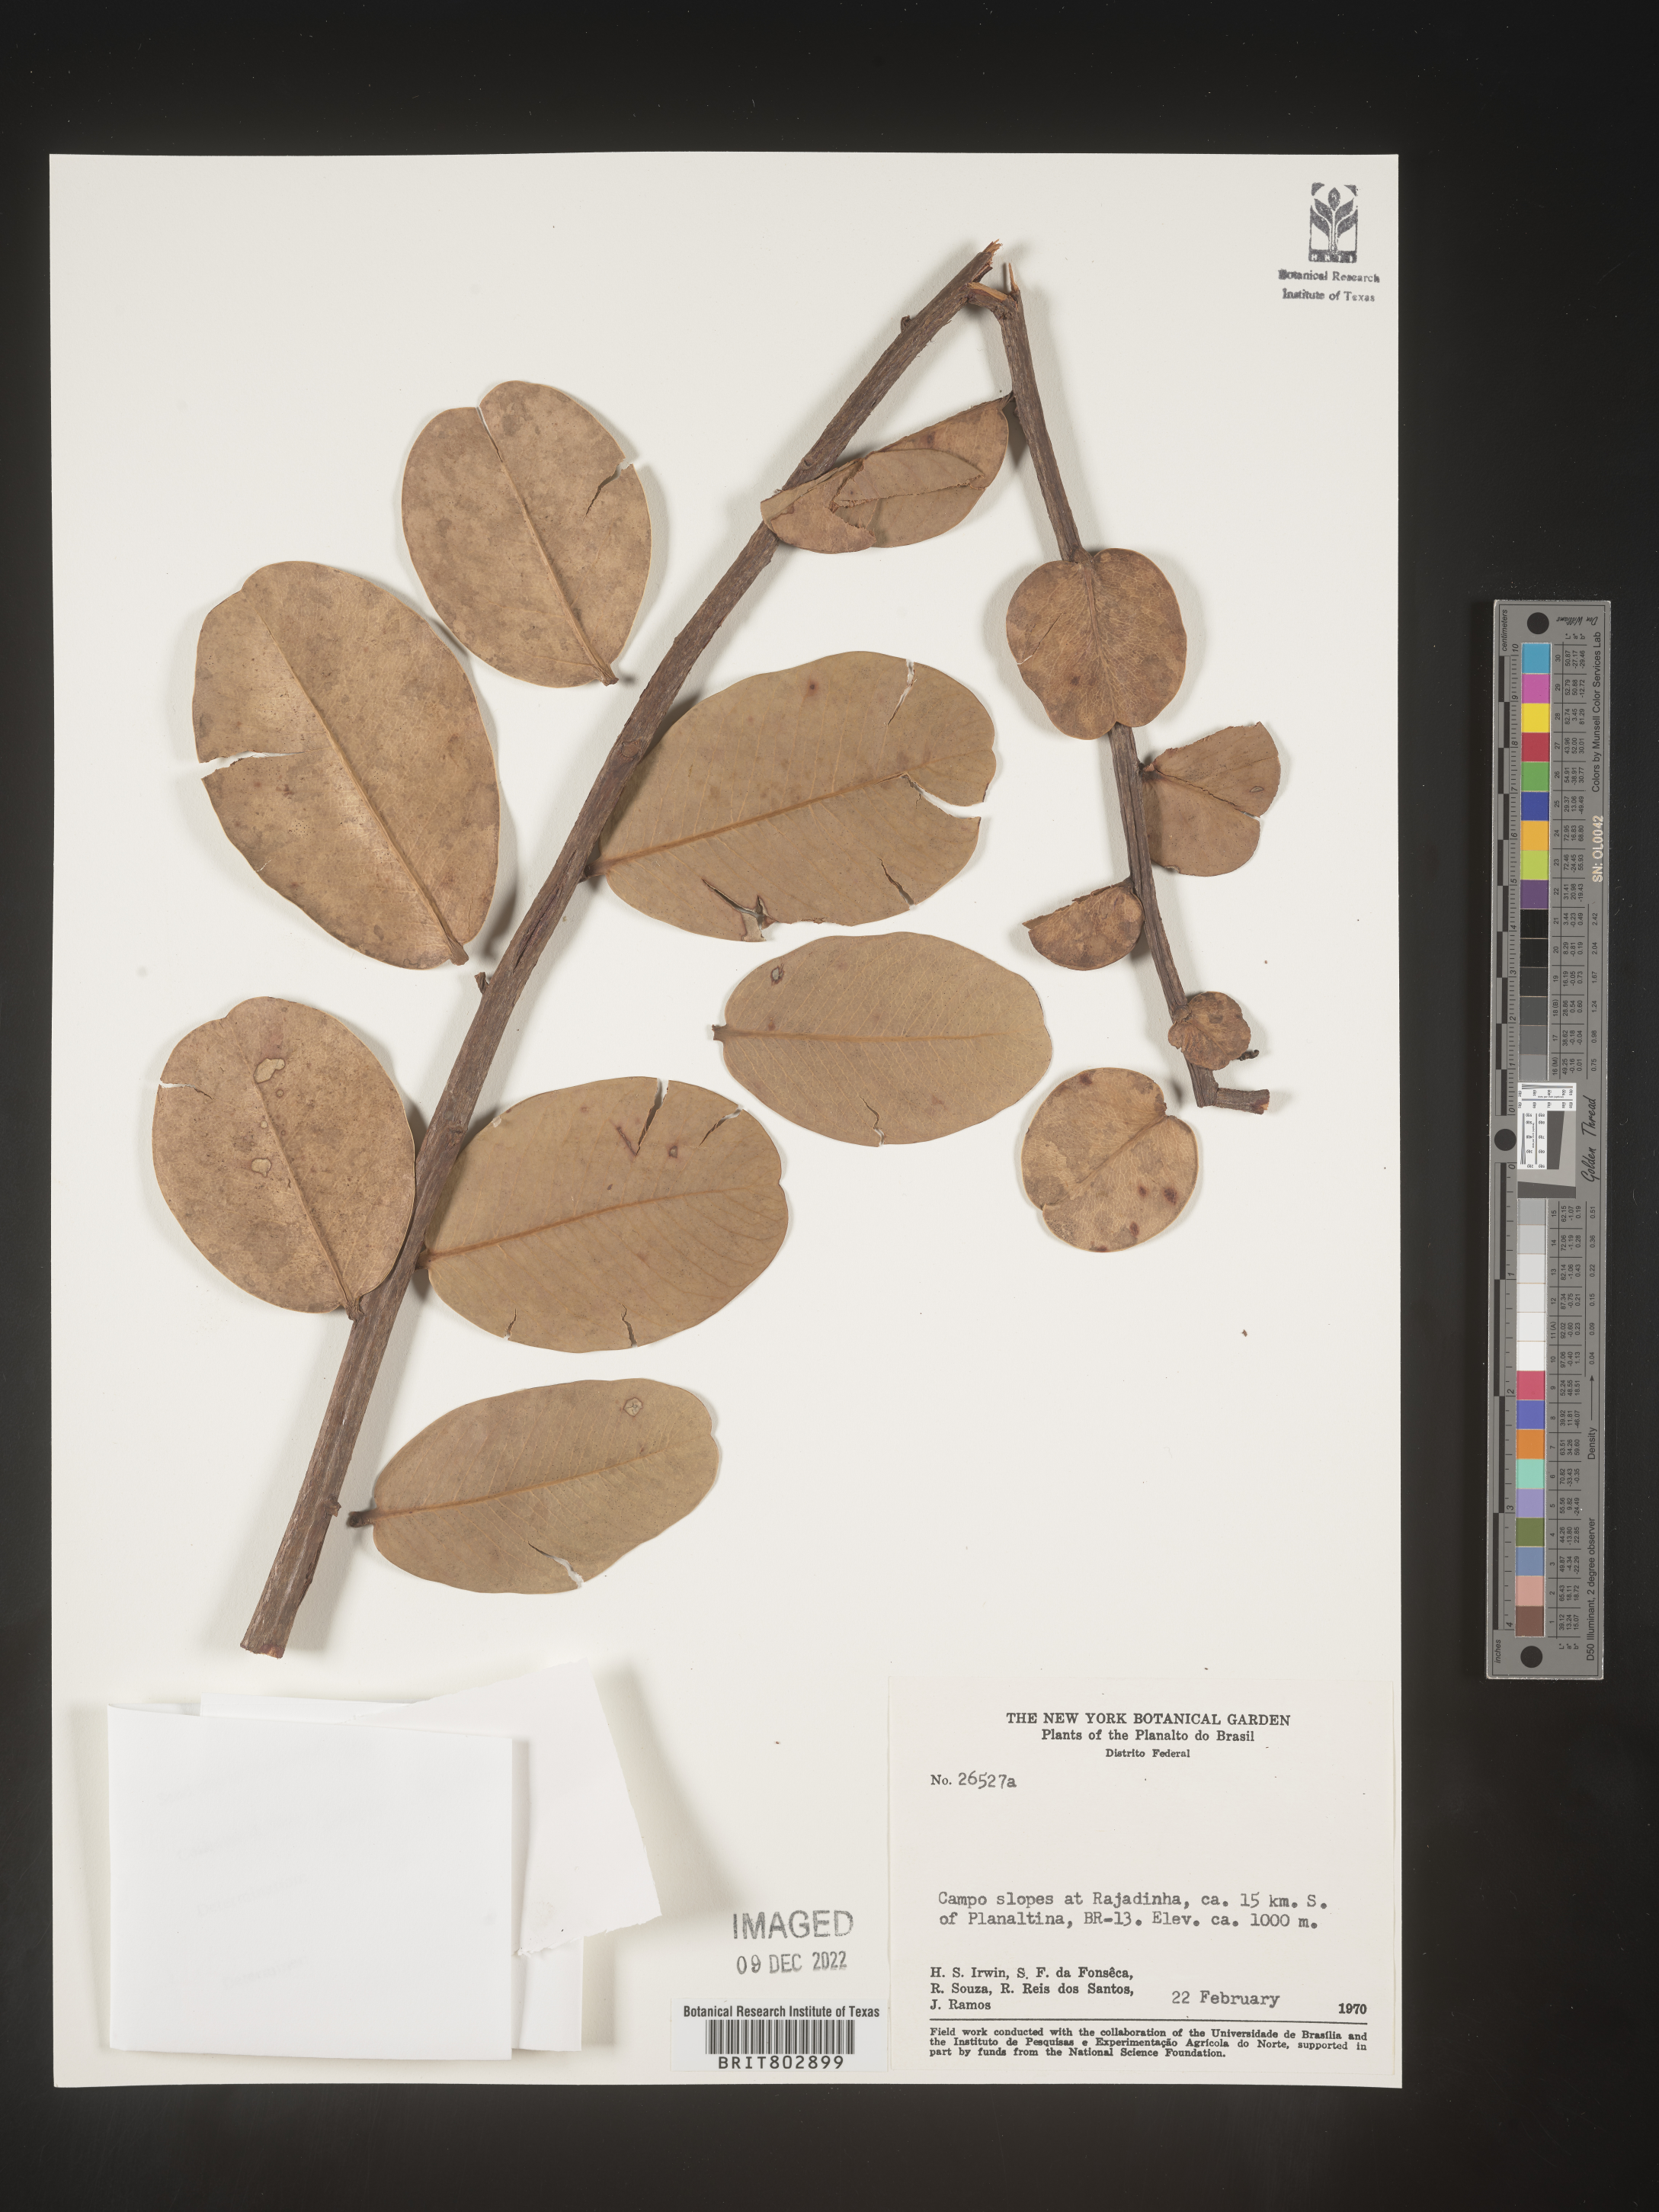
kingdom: Plantae
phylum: Tracheophyta
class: Magnoliopsida
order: Malpighiales
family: Calophyllaceae
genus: Kielmeyera
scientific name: Kielmeyera
